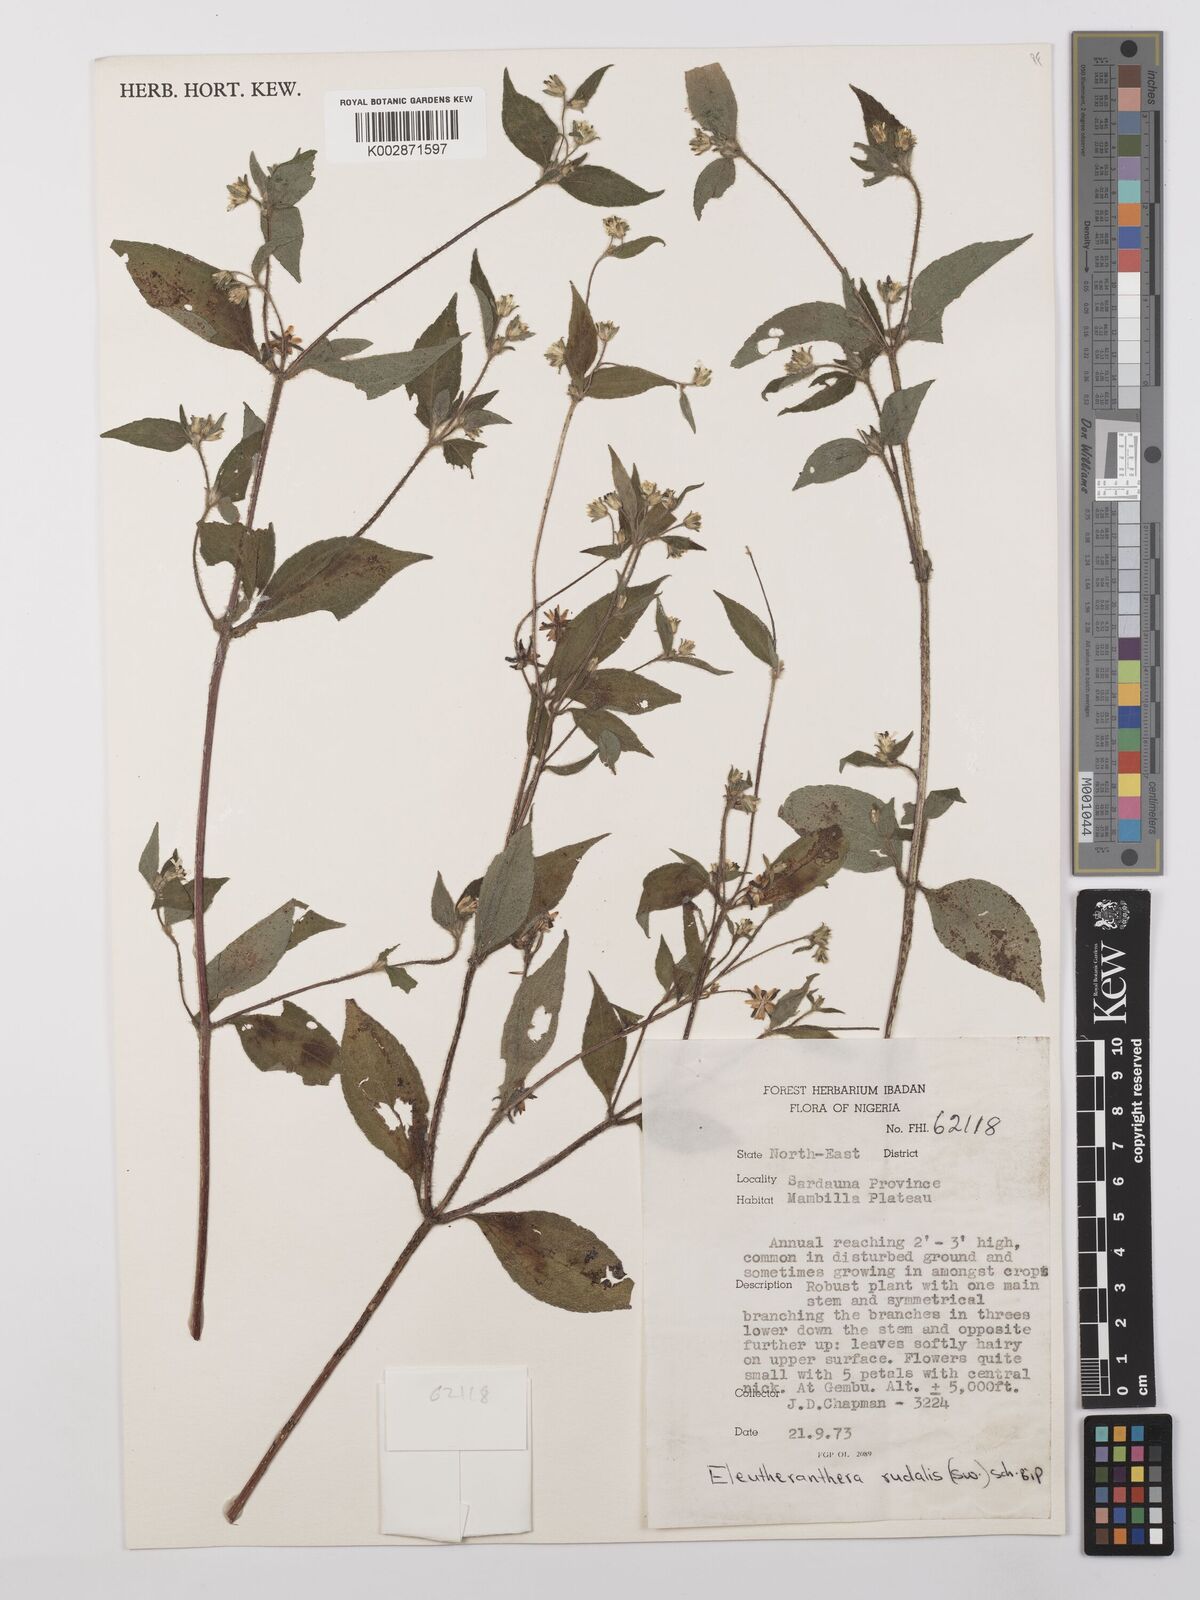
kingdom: Plantae
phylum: Tracheophyta
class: Magnoliopsida
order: Asterales
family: Asteraceae
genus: Eleutheranthera
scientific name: Eleutheranthera ruderalis
